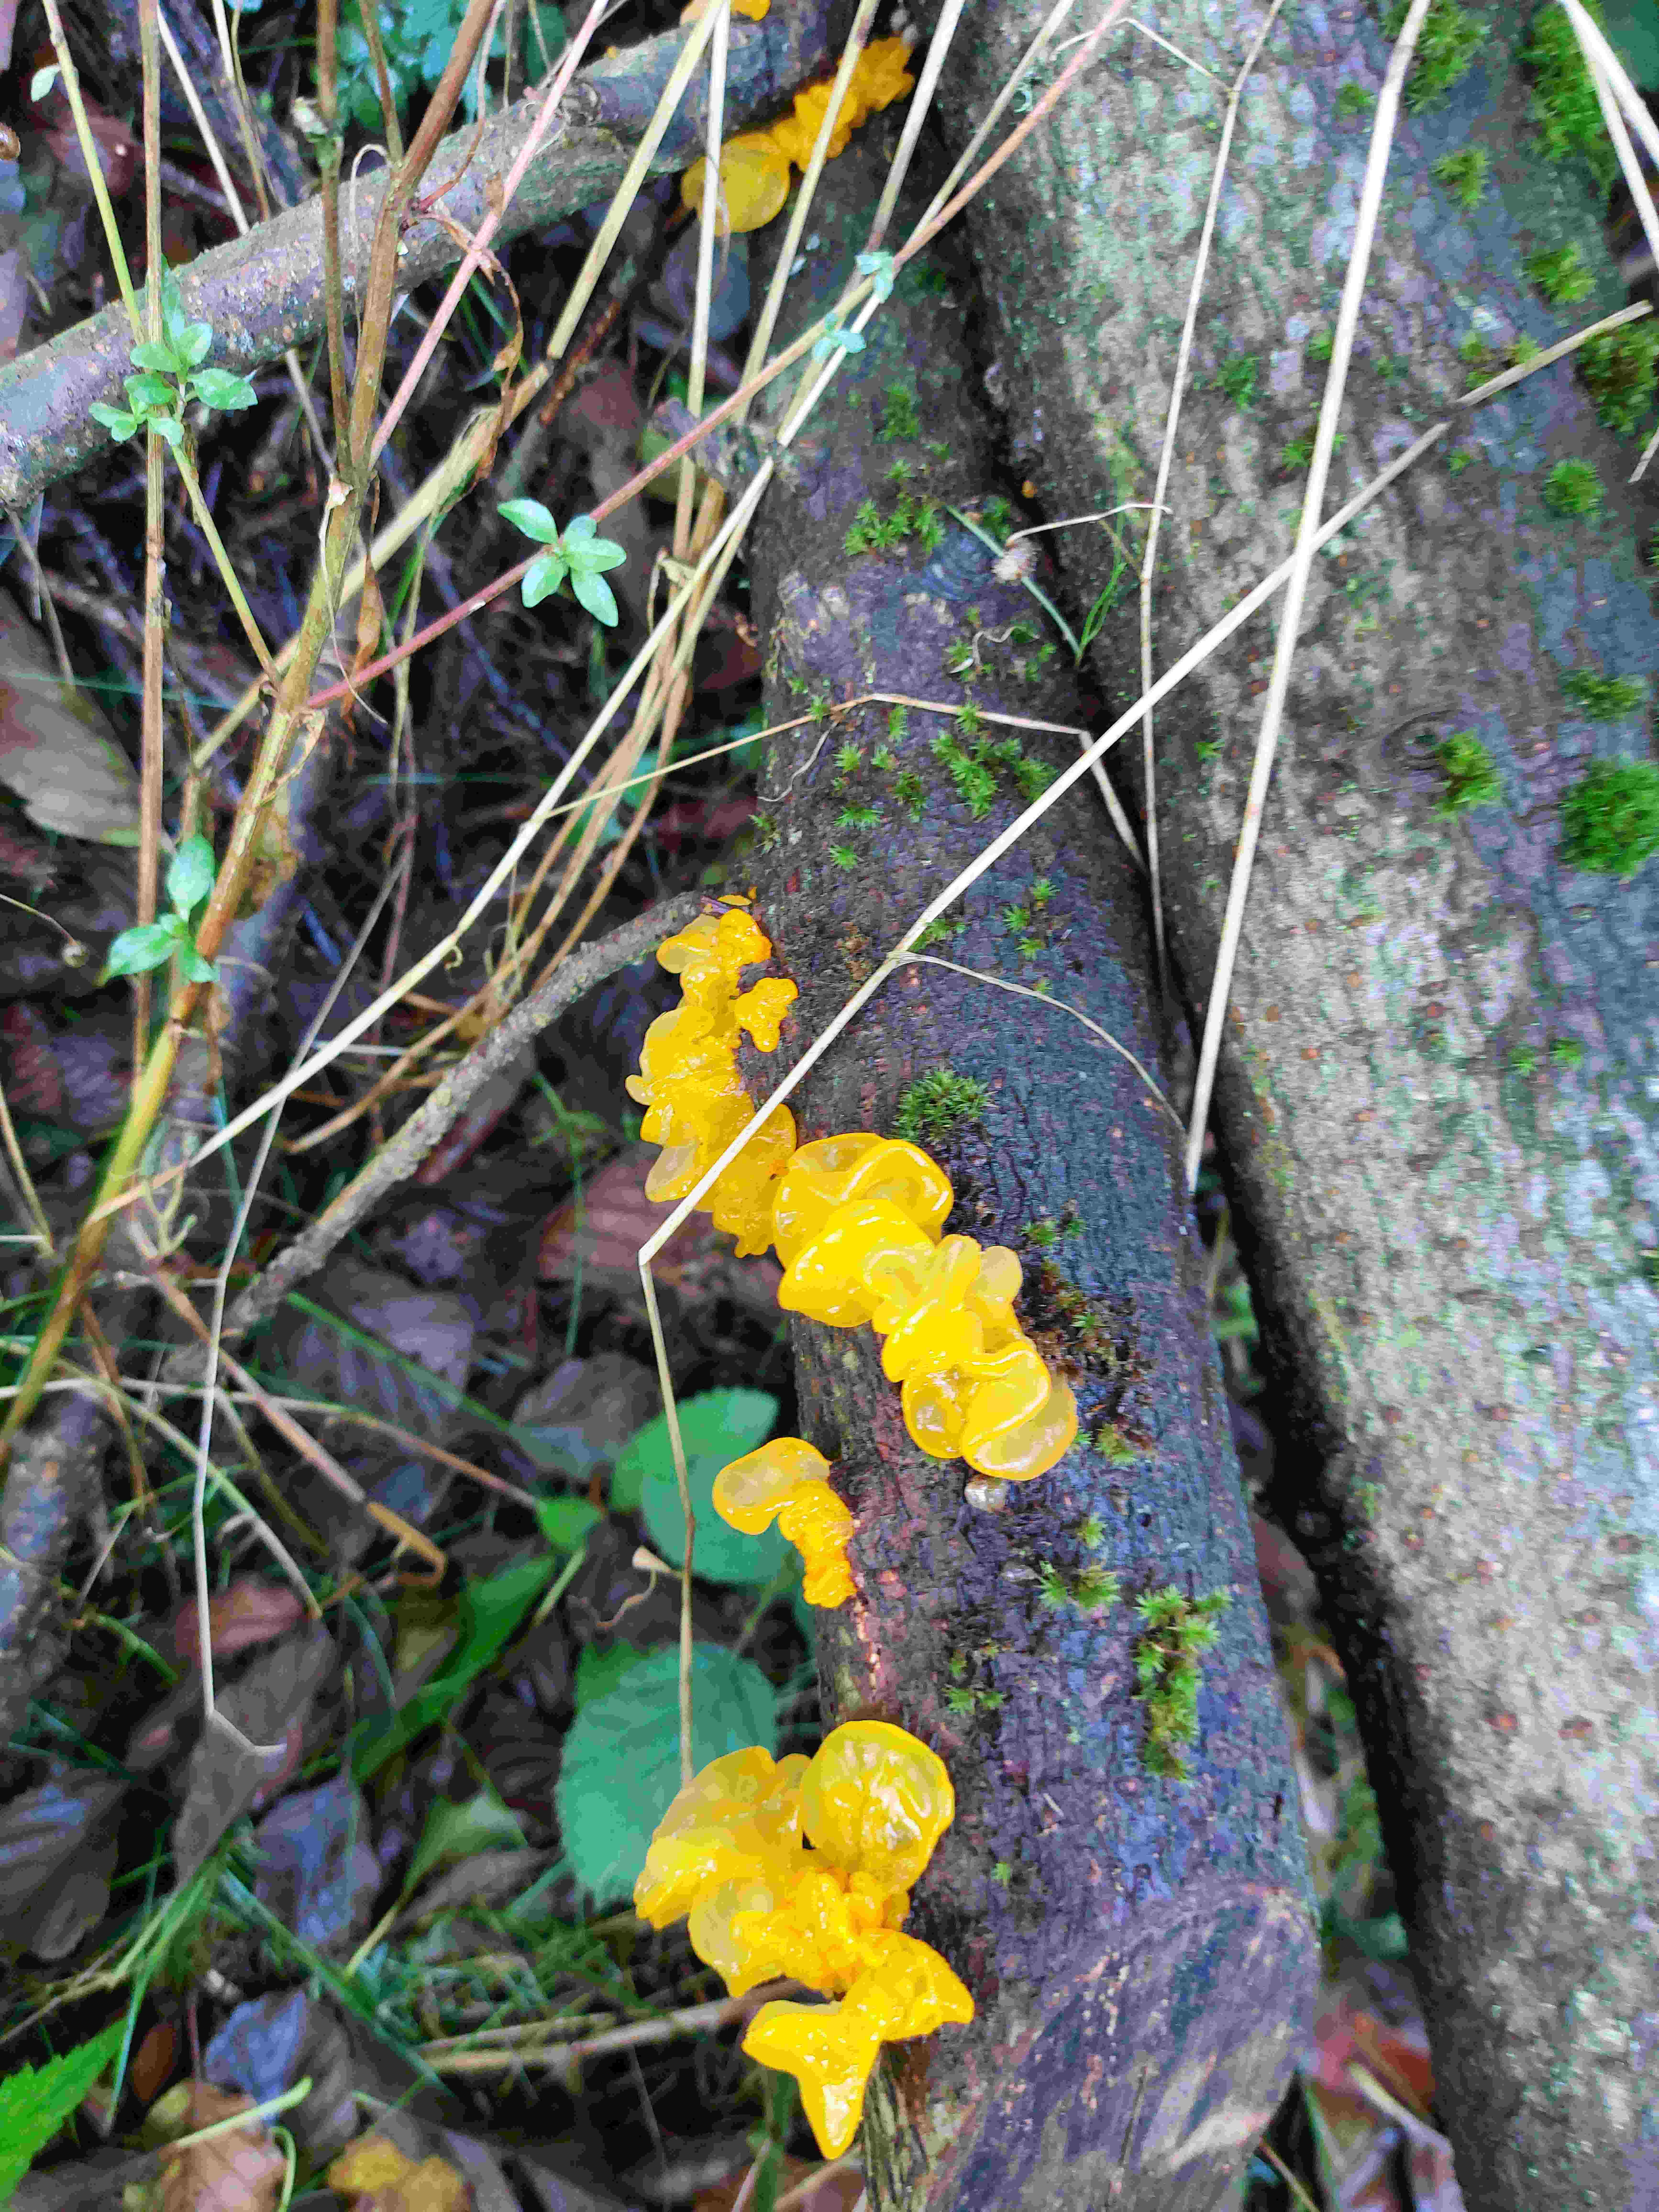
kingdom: Fungi
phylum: Basidiomycota
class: Tremellomycetes
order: Tremellales
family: Tremellaceae
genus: Tremella
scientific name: Tremella mesenterica
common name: gul bævresvamp
